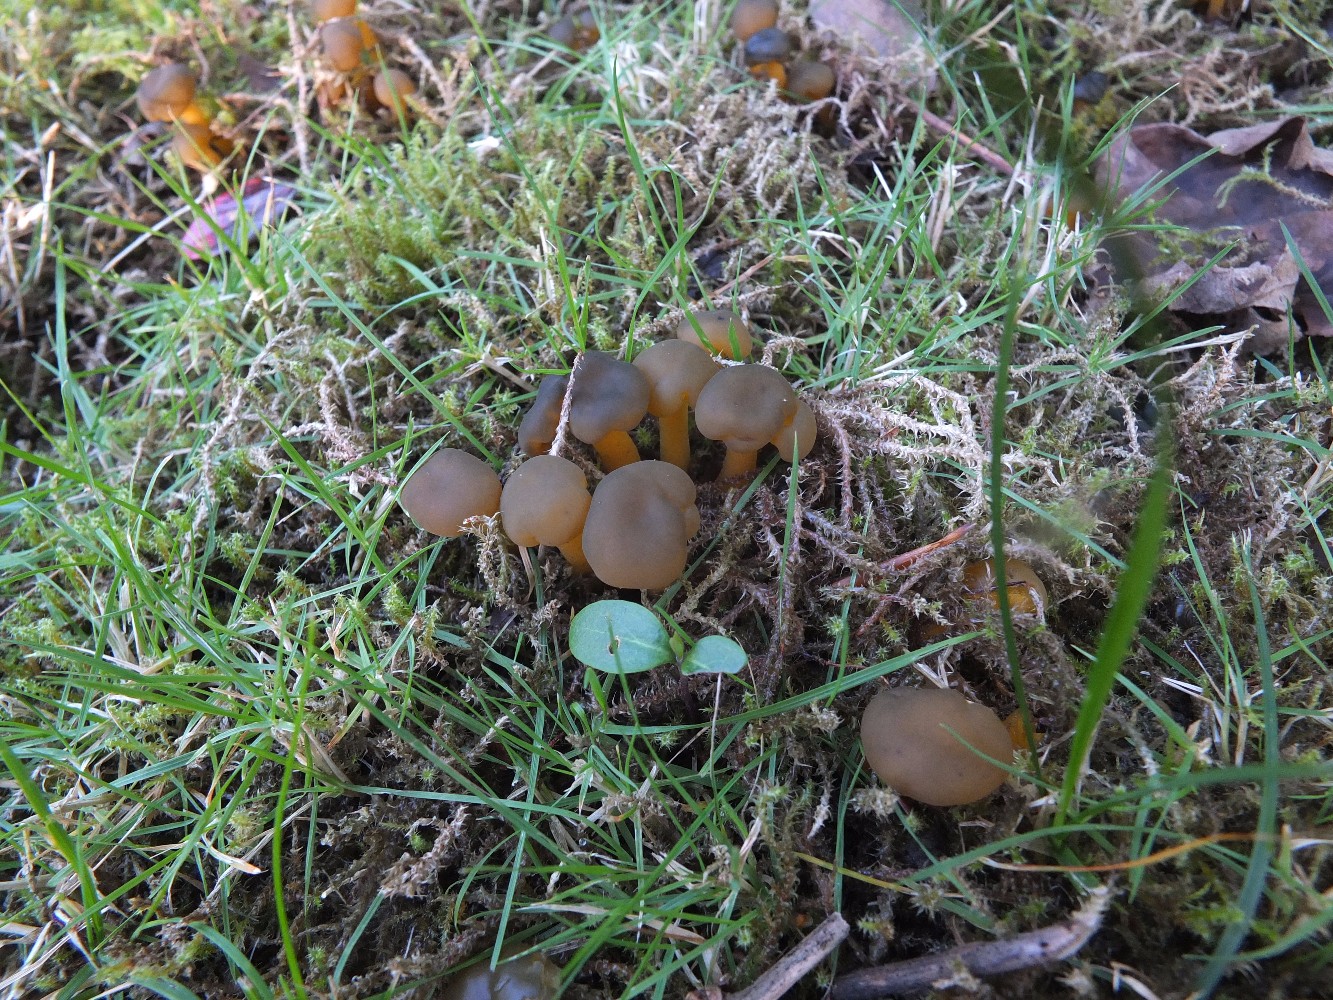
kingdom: Fungi
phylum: Ascomycota
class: Leotiomycetes
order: Leotiales
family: Leotiaceae
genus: Leotia
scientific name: Leotia lubrica
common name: ravsvamp
